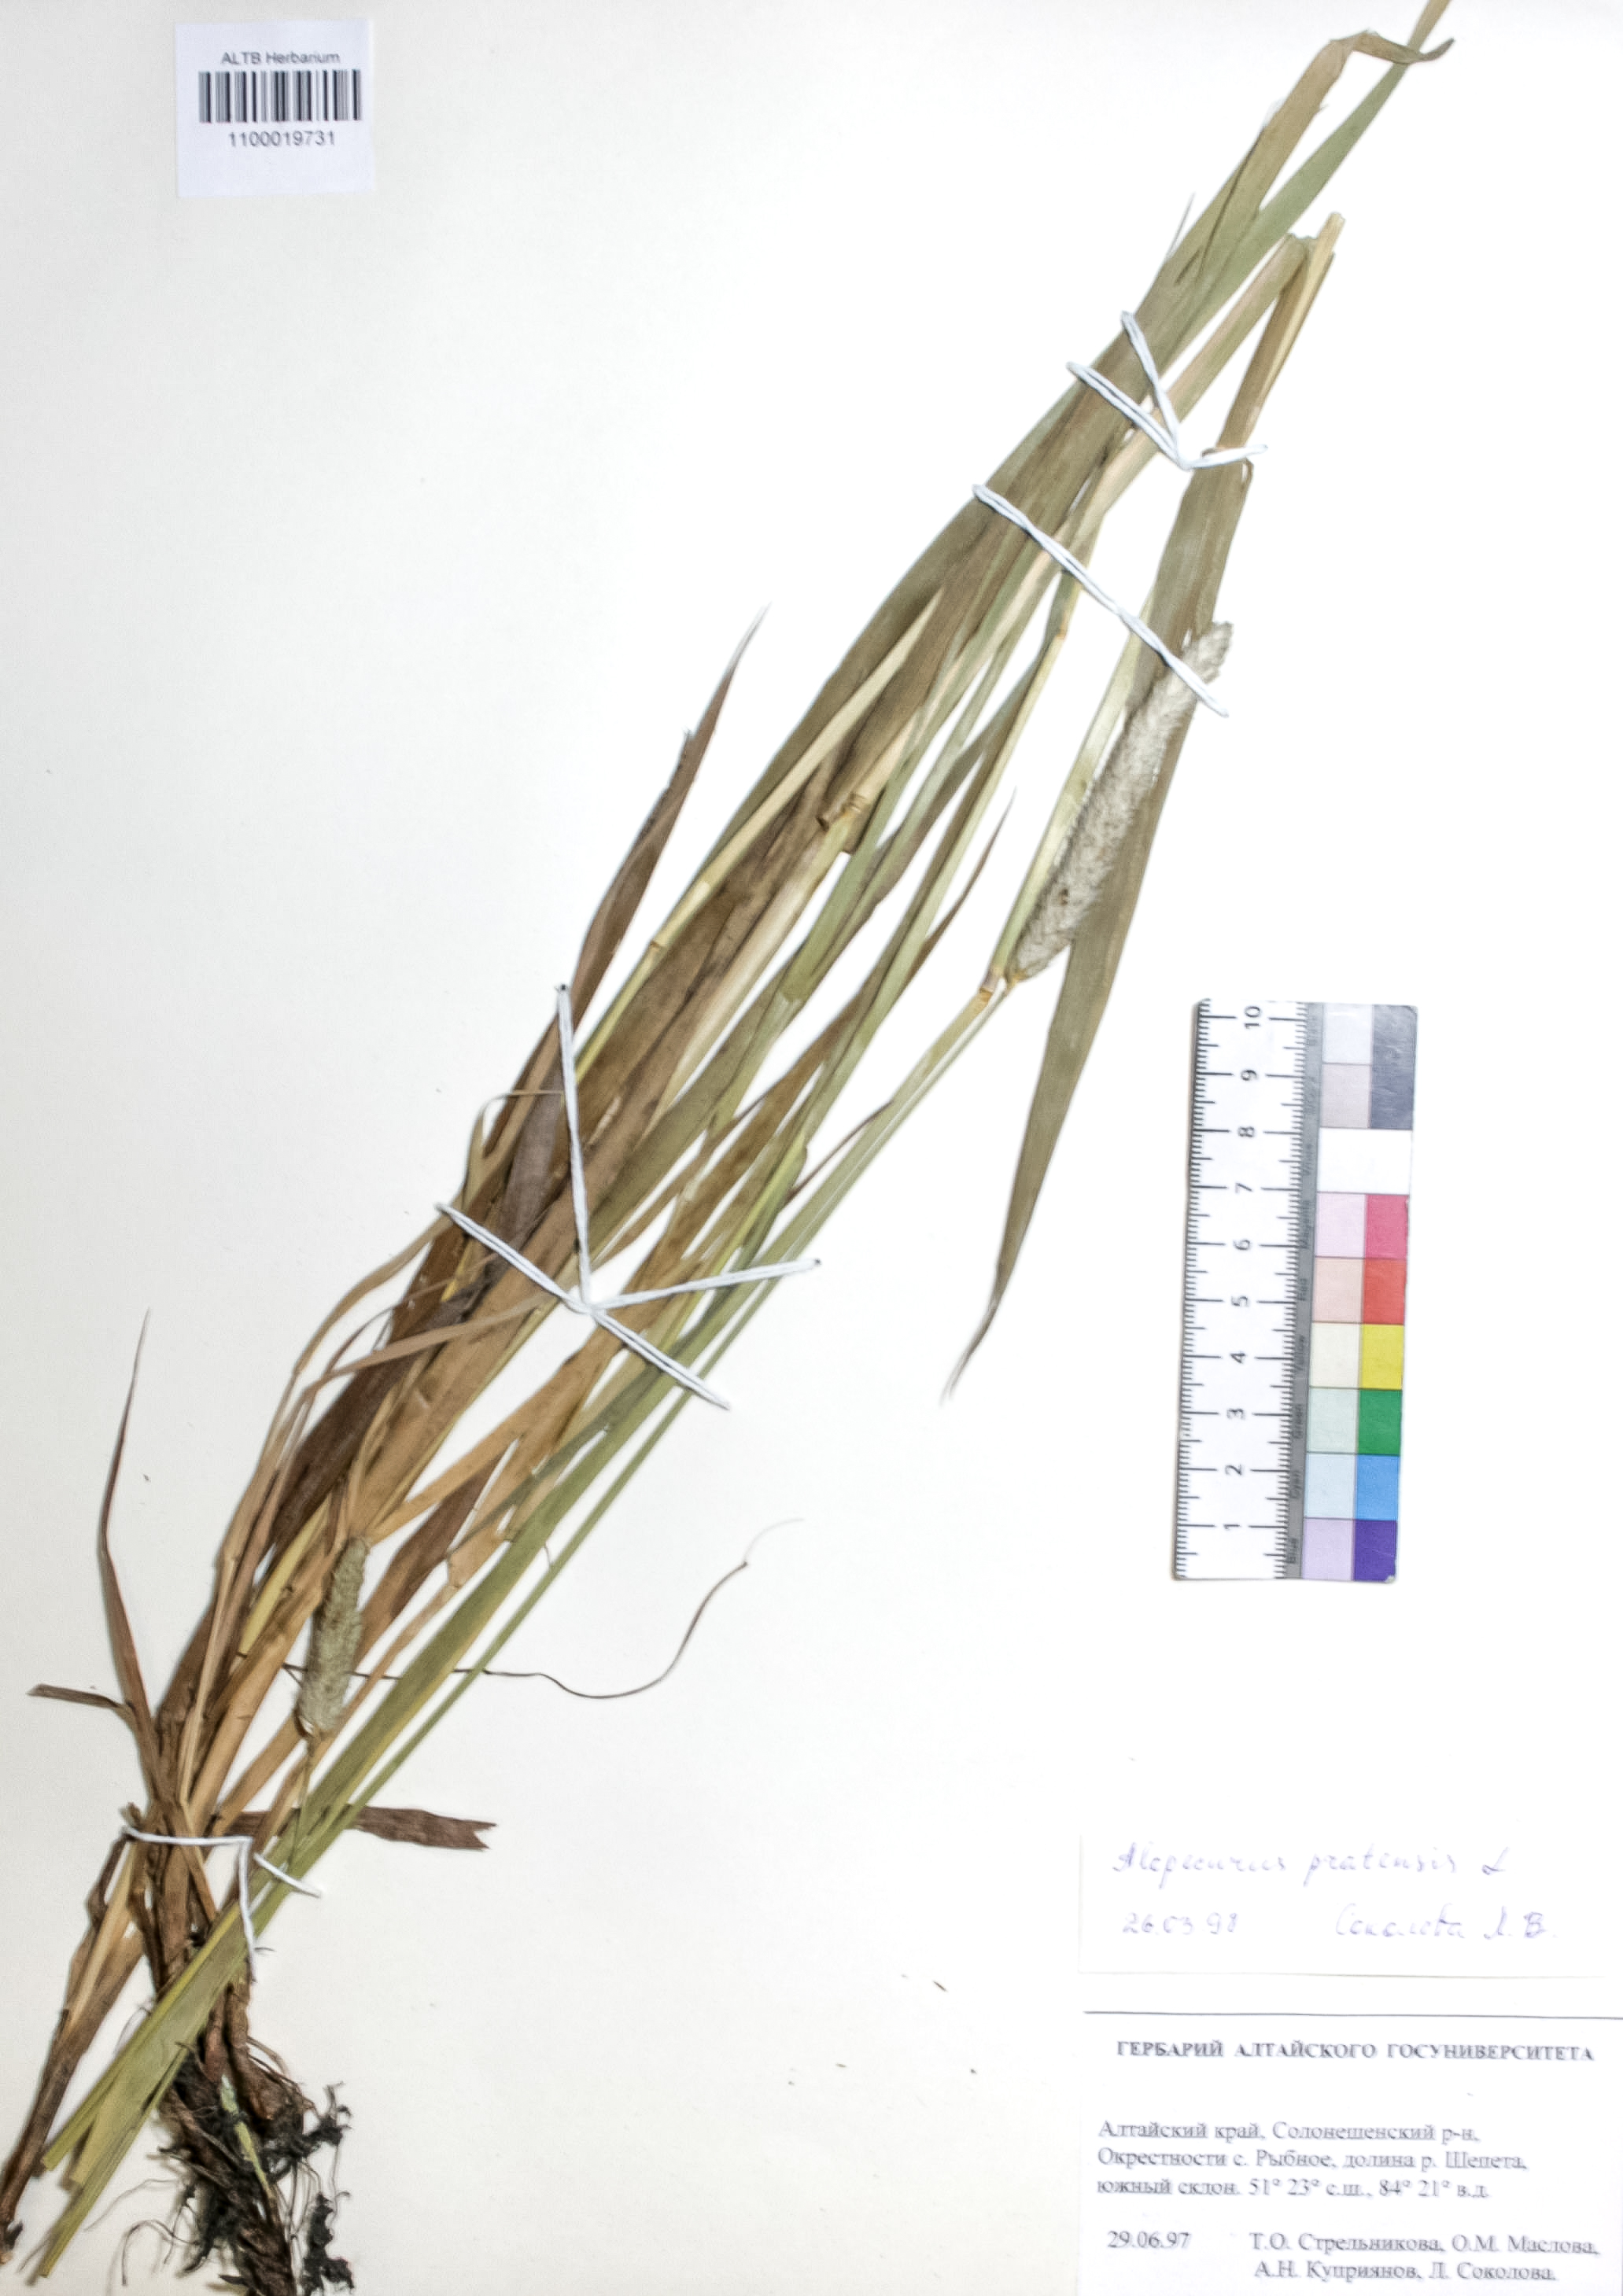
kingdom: Plantae
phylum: Tracheophyta
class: Liliopsida
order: Poales
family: Poaceae
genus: Alopecurus
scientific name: Alopecurus pratensis
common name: Meadow foxtail
